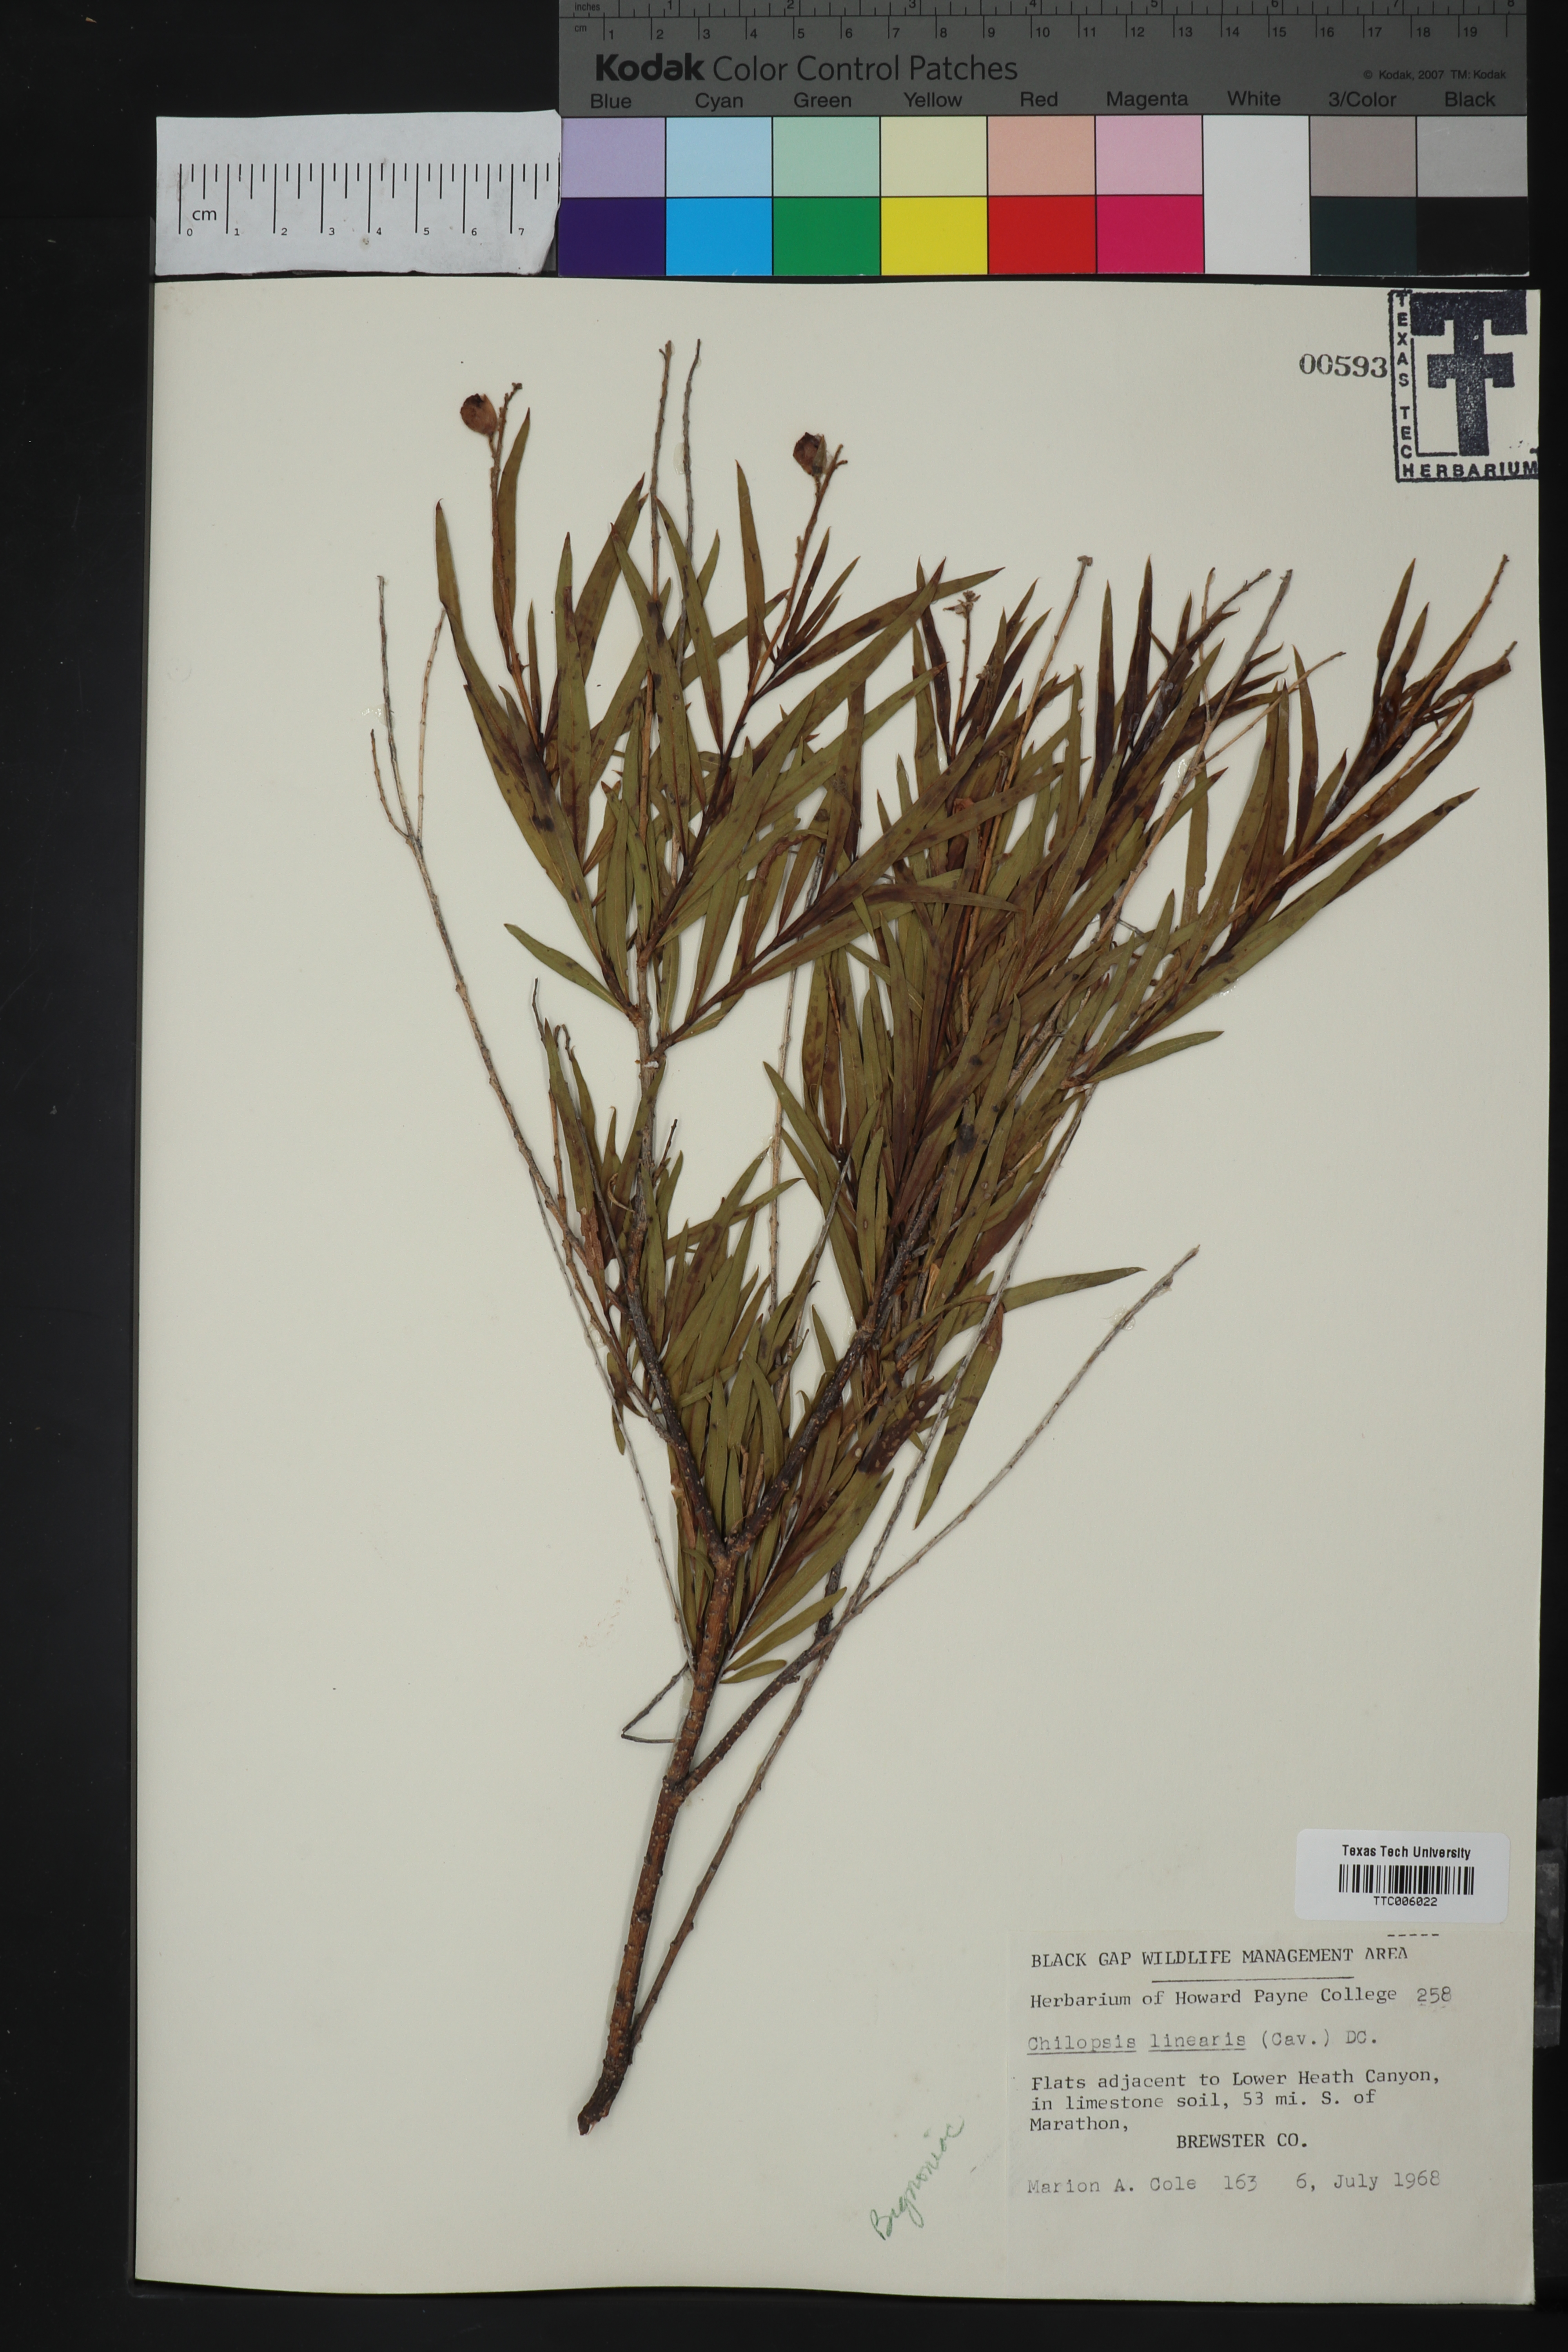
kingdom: Plantae
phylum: Tracheophyta
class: Magnoliopsida
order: Lamiales
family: Bignoniaceae
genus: Chilopsis
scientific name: Chilopsis linearis
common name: Desert-willow
